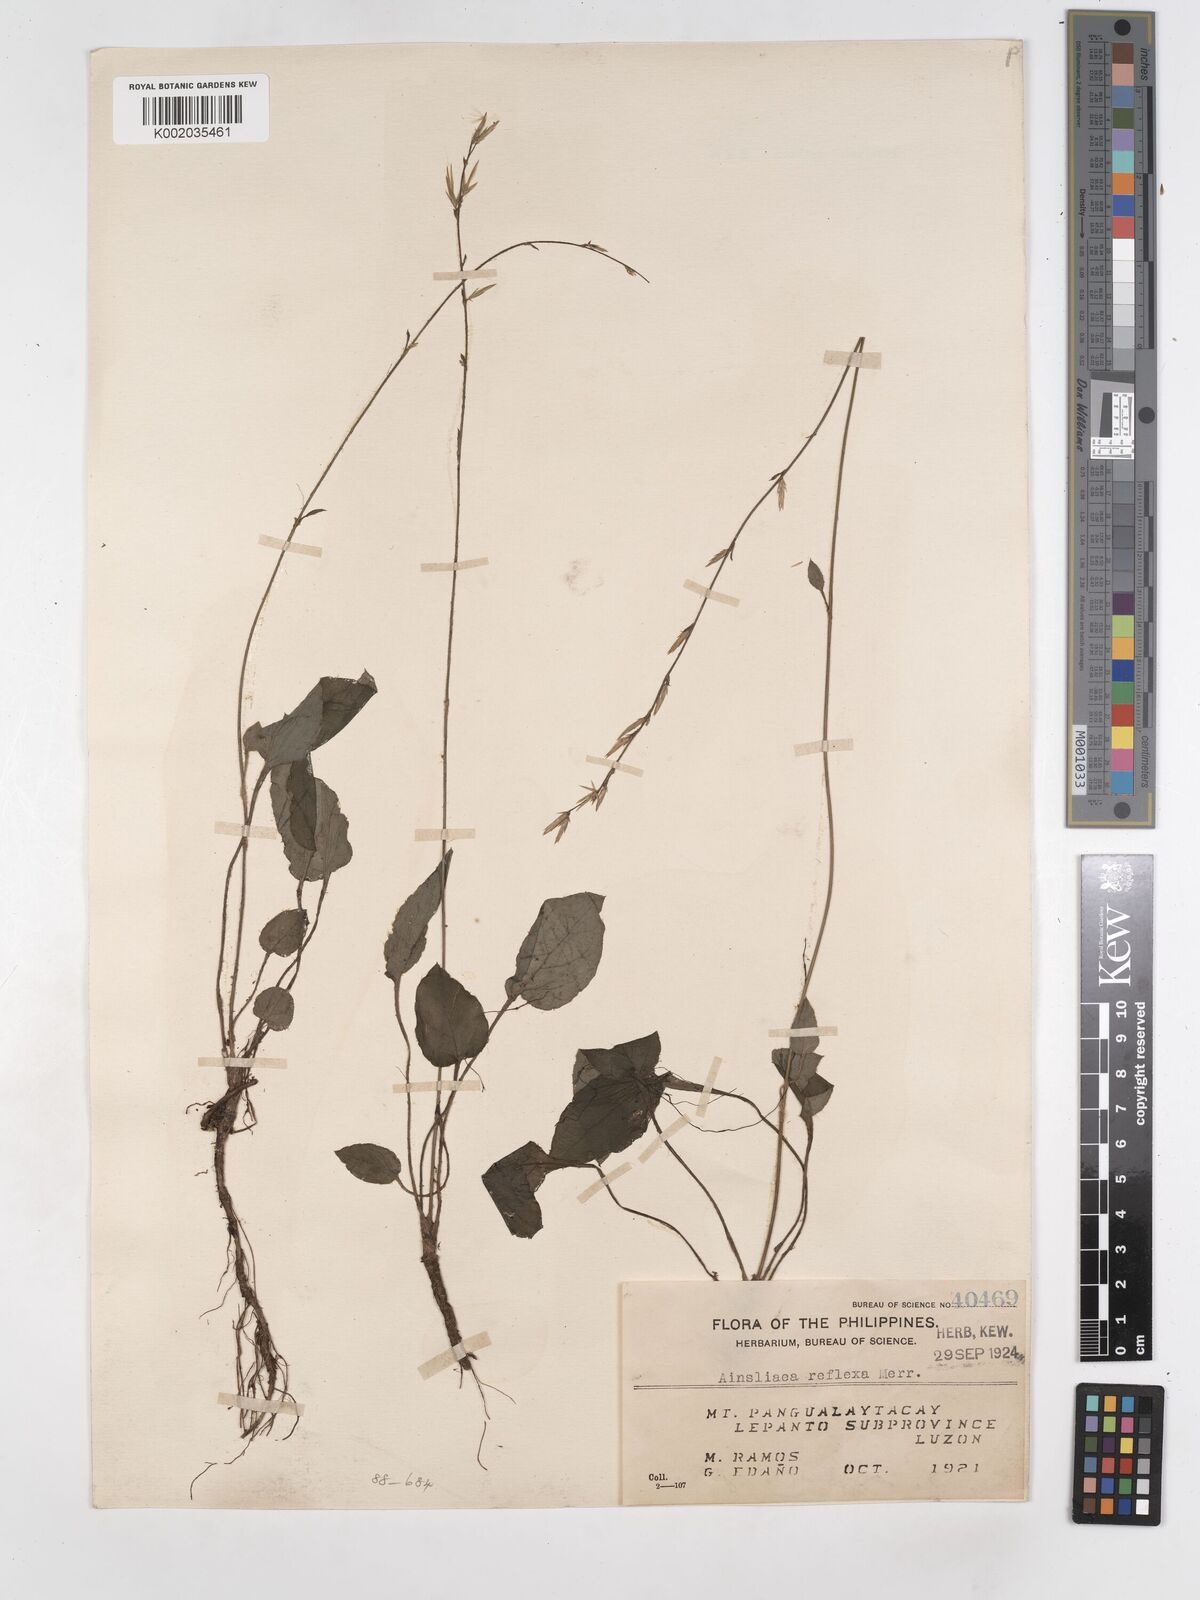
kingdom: Plantae
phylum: Tracheophyta
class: Magnoliopsida
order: Asterales
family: Asteraceae
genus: Ainsliaea
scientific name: Ainsliaea reflexa
